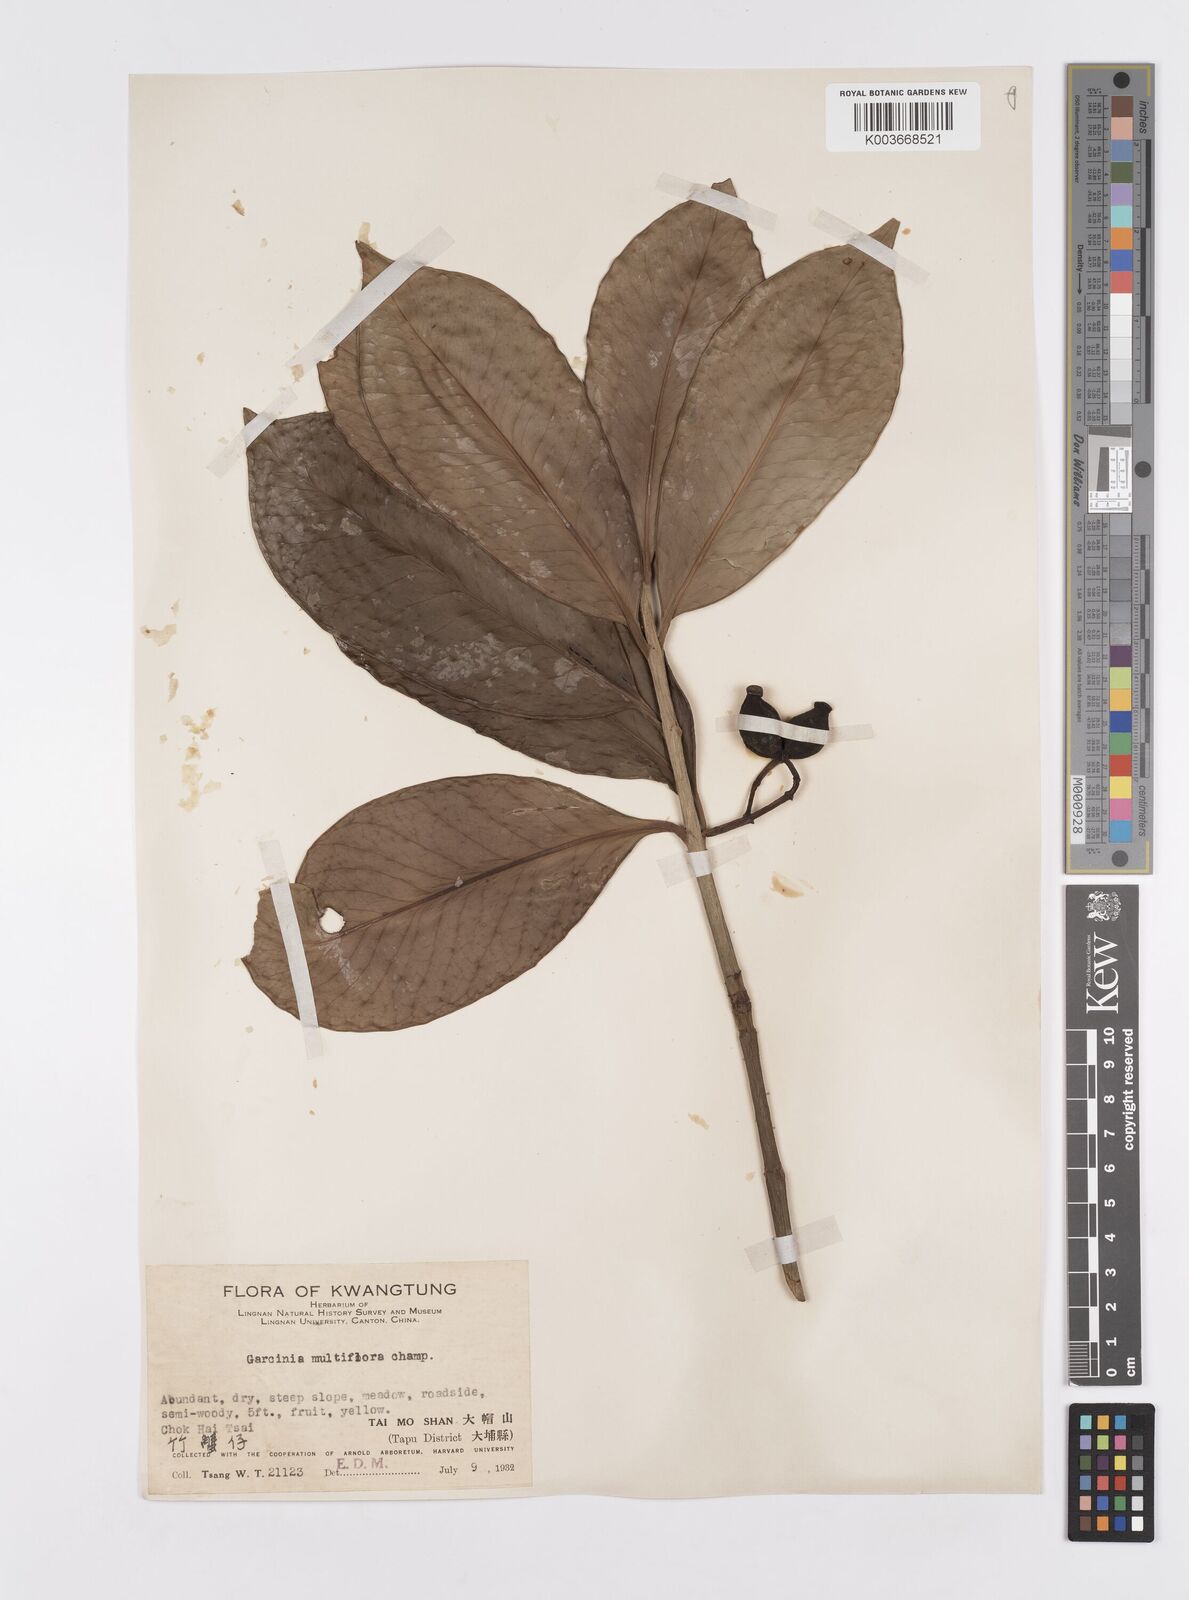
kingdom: Plantae
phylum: Tracheophyta
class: Magnoliopsida
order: Malpighiales
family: Clusiaceae
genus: Garcinia
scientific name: Garcinia multiflora
